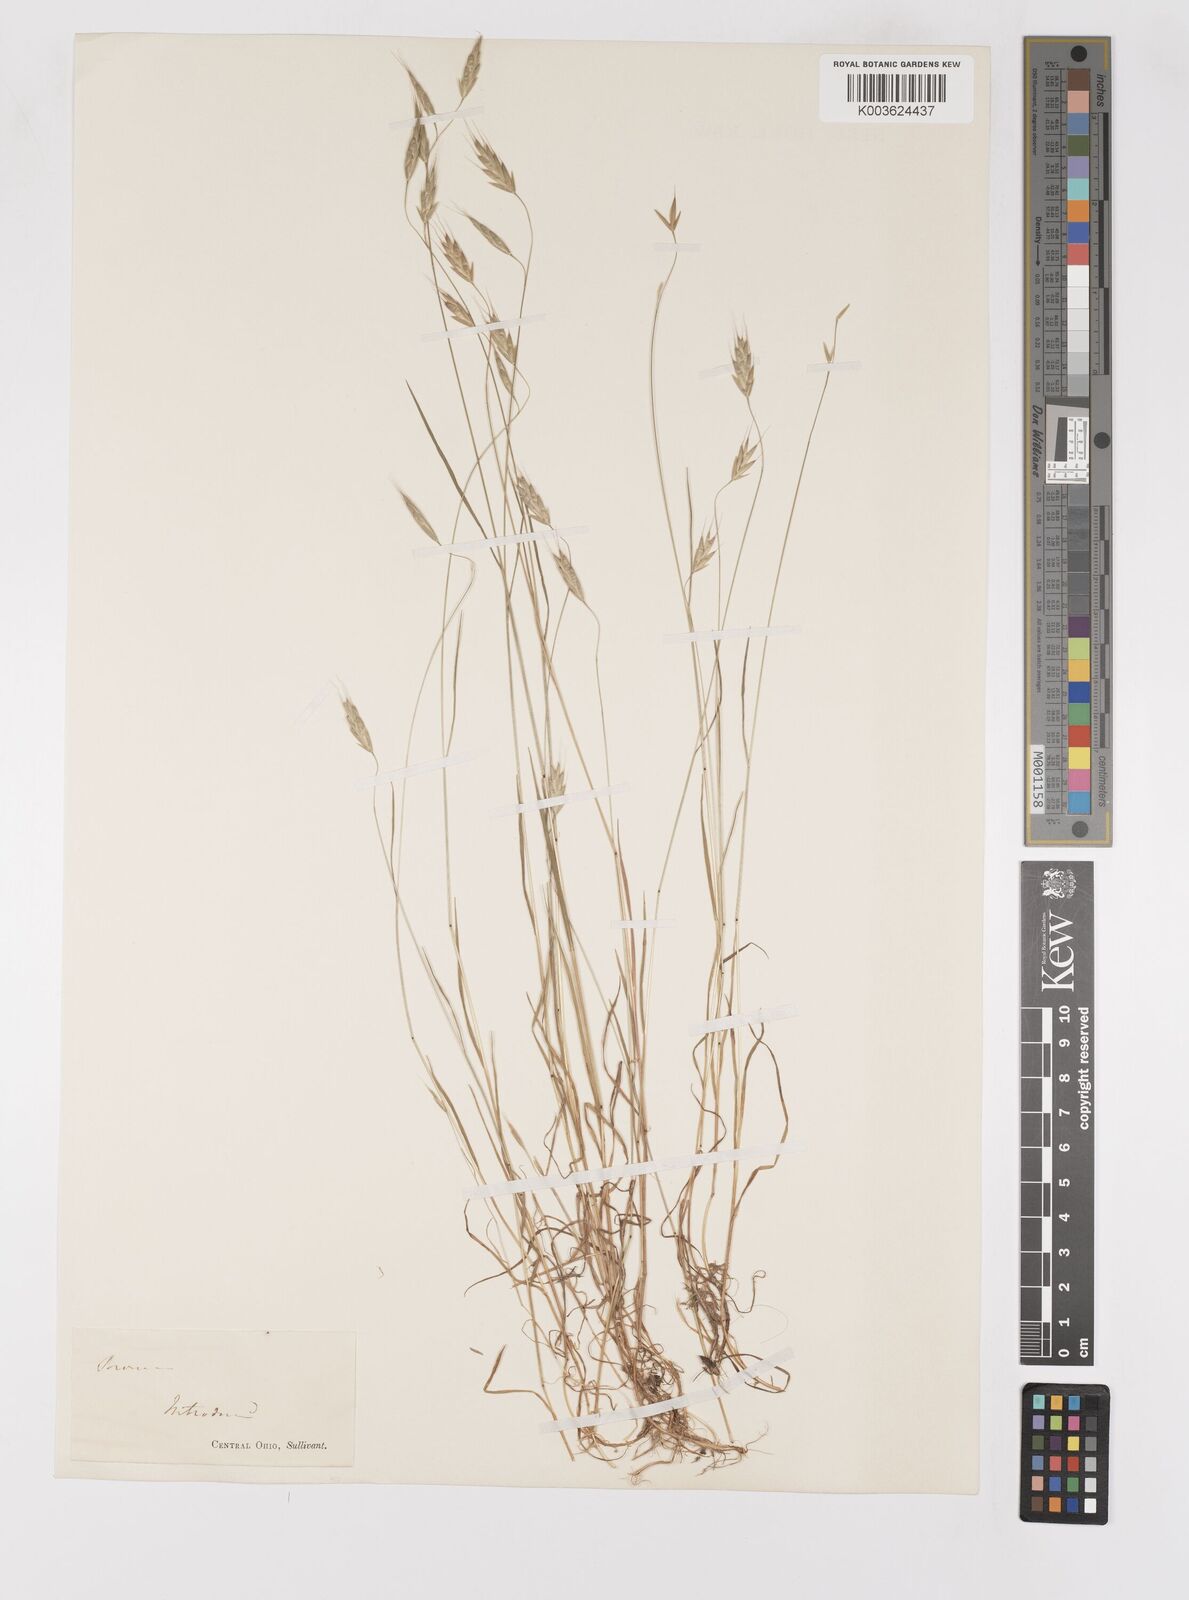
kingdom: Plantae
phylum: Tracheophyta
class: Liliopsida
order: Poales
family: Poaceae
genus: Bromus
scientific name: Bromus
